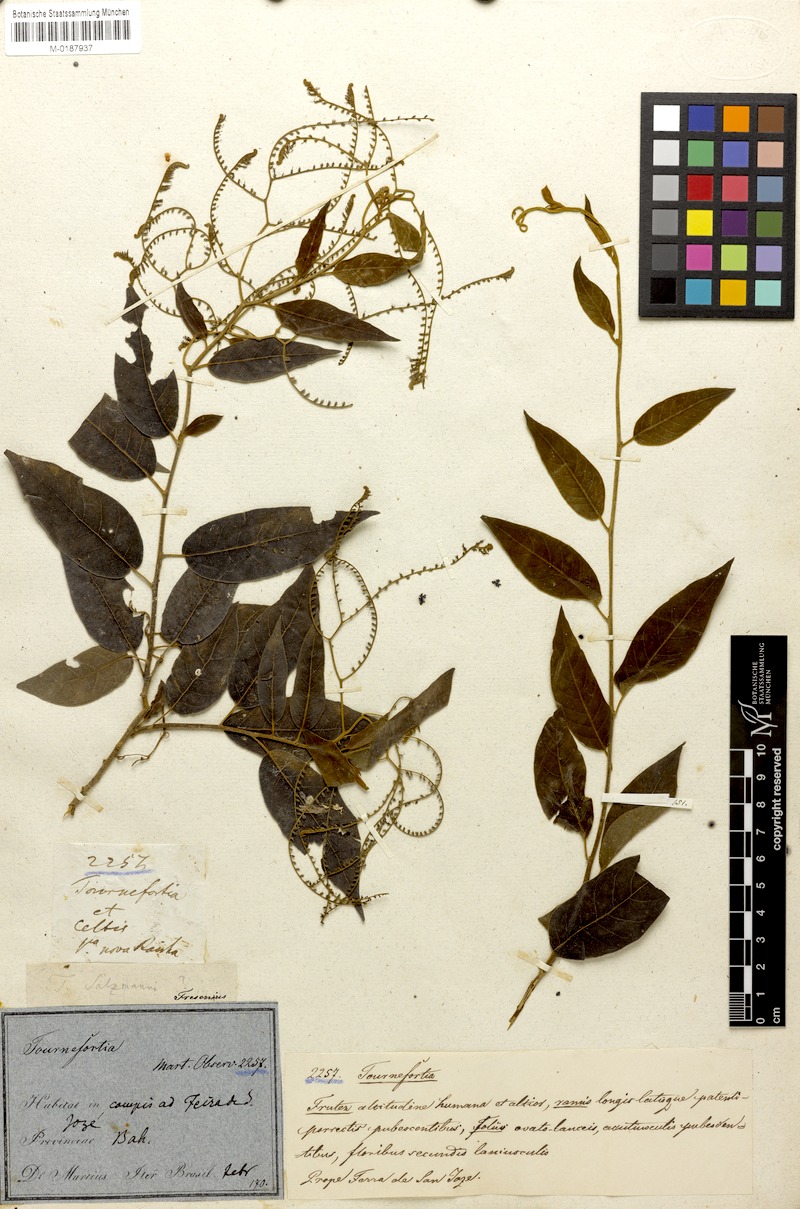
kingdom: Plantae
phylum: Tracheophyta
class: Magnoliopsida
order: Boraginales
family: Heliotropiaceae
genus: Myriopus
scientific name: Myriopus salzmannii
